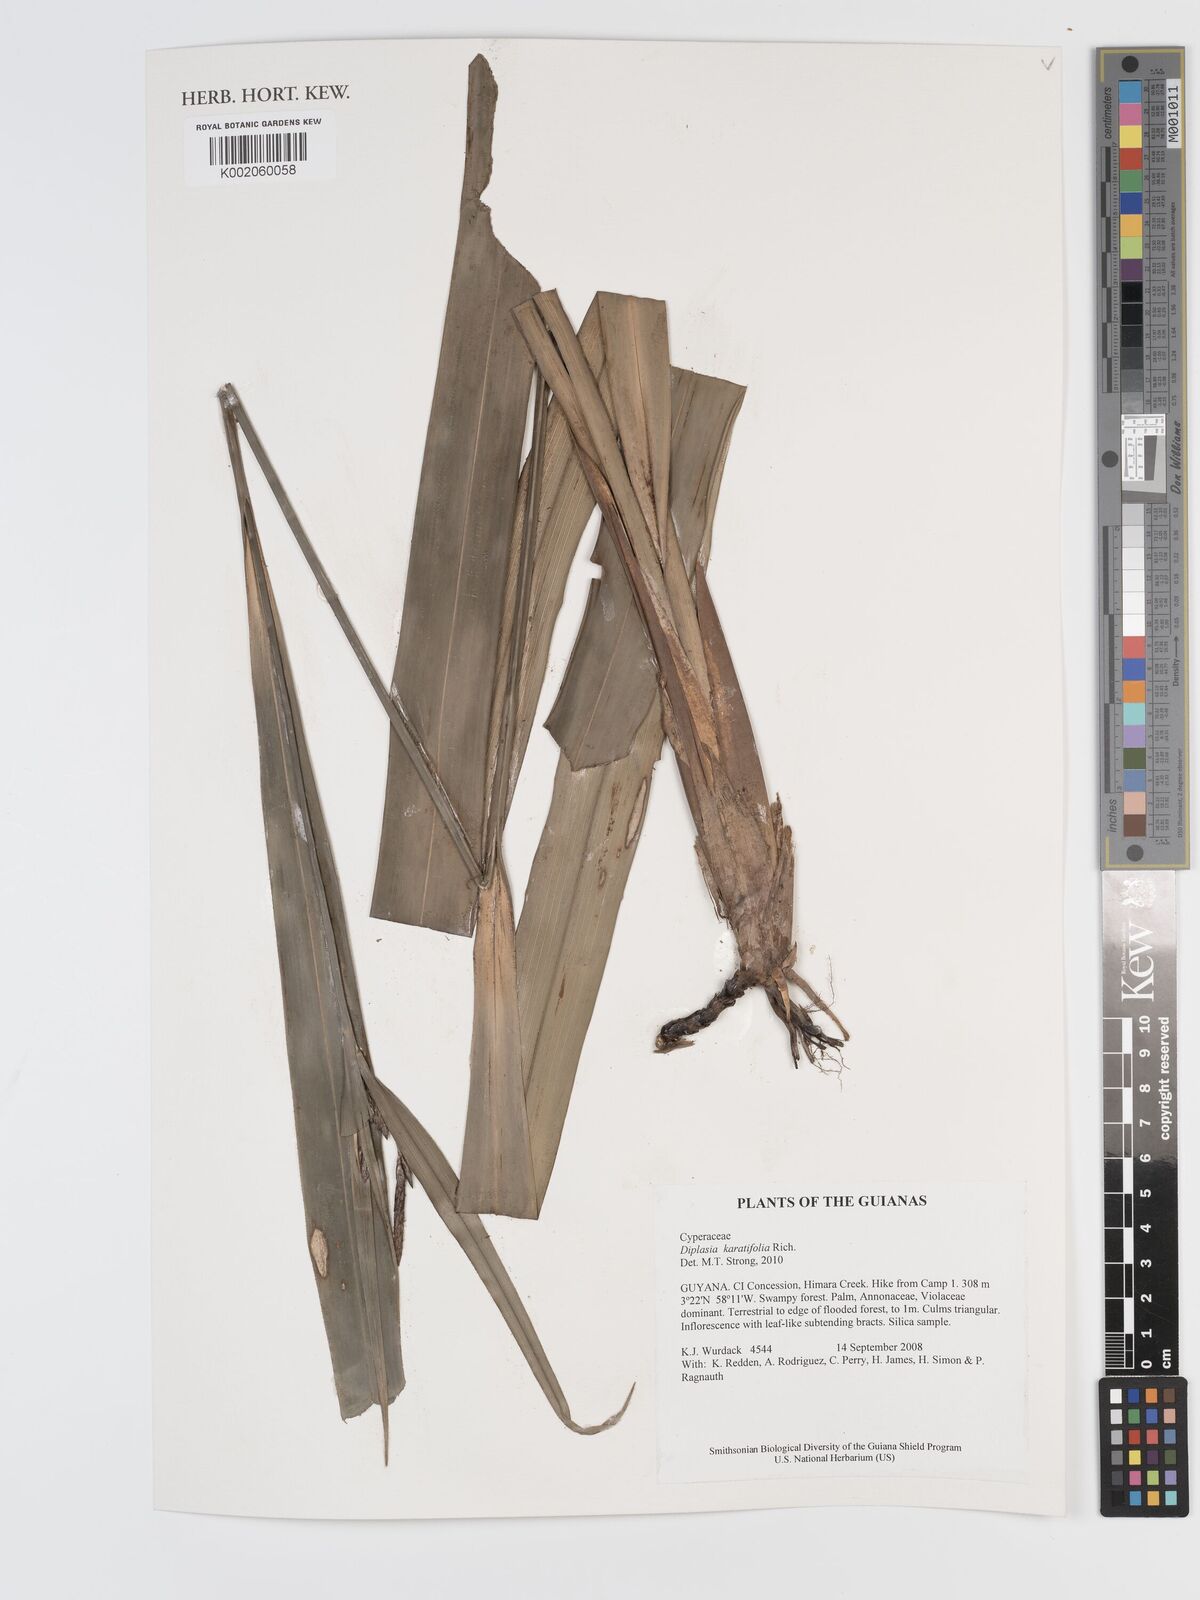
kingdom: Plantae
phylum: Tracheophyta
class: Liliopsida
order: Poales
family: Cyperaceae
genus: Diplasia
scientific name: Diplasia karatifolia
